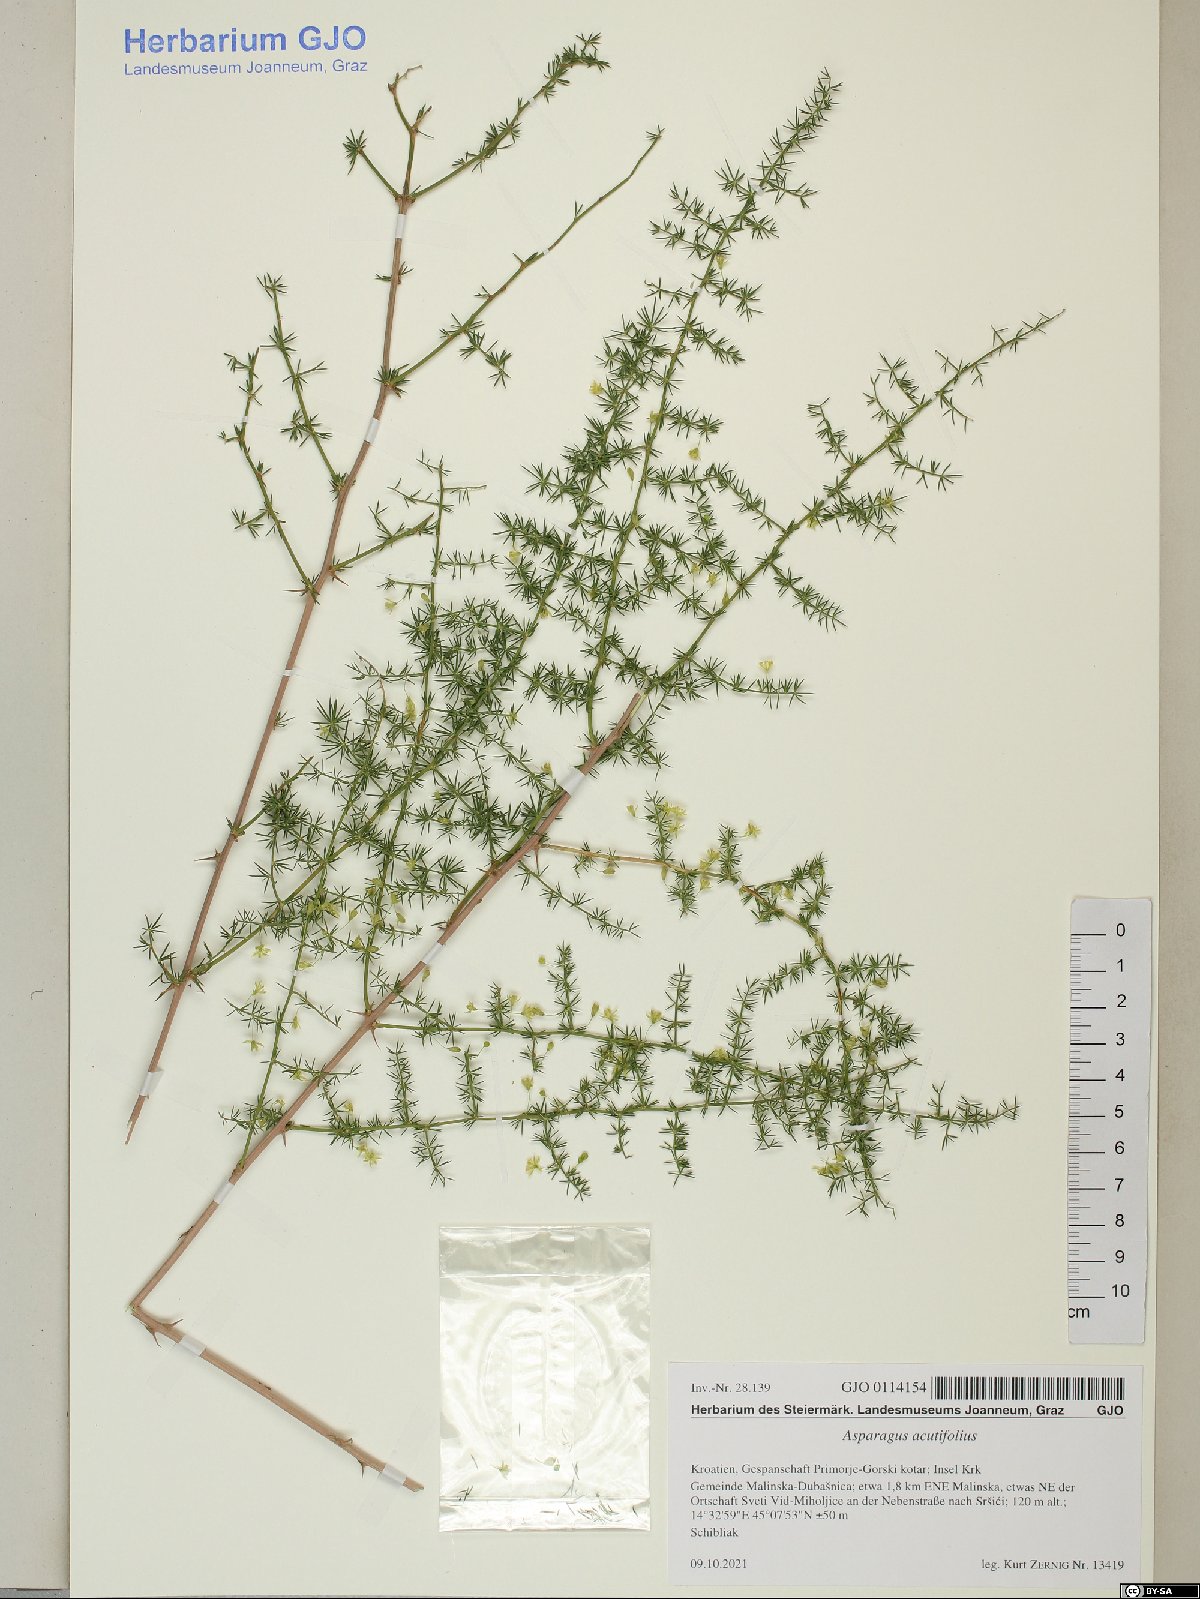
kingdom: Plantae
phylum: Tracheophyta
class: Liliopsida
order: Asparagales
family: Asparagaceae
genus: Asparagus
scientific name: Asparagus acutifolius
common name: Wild asparagus
